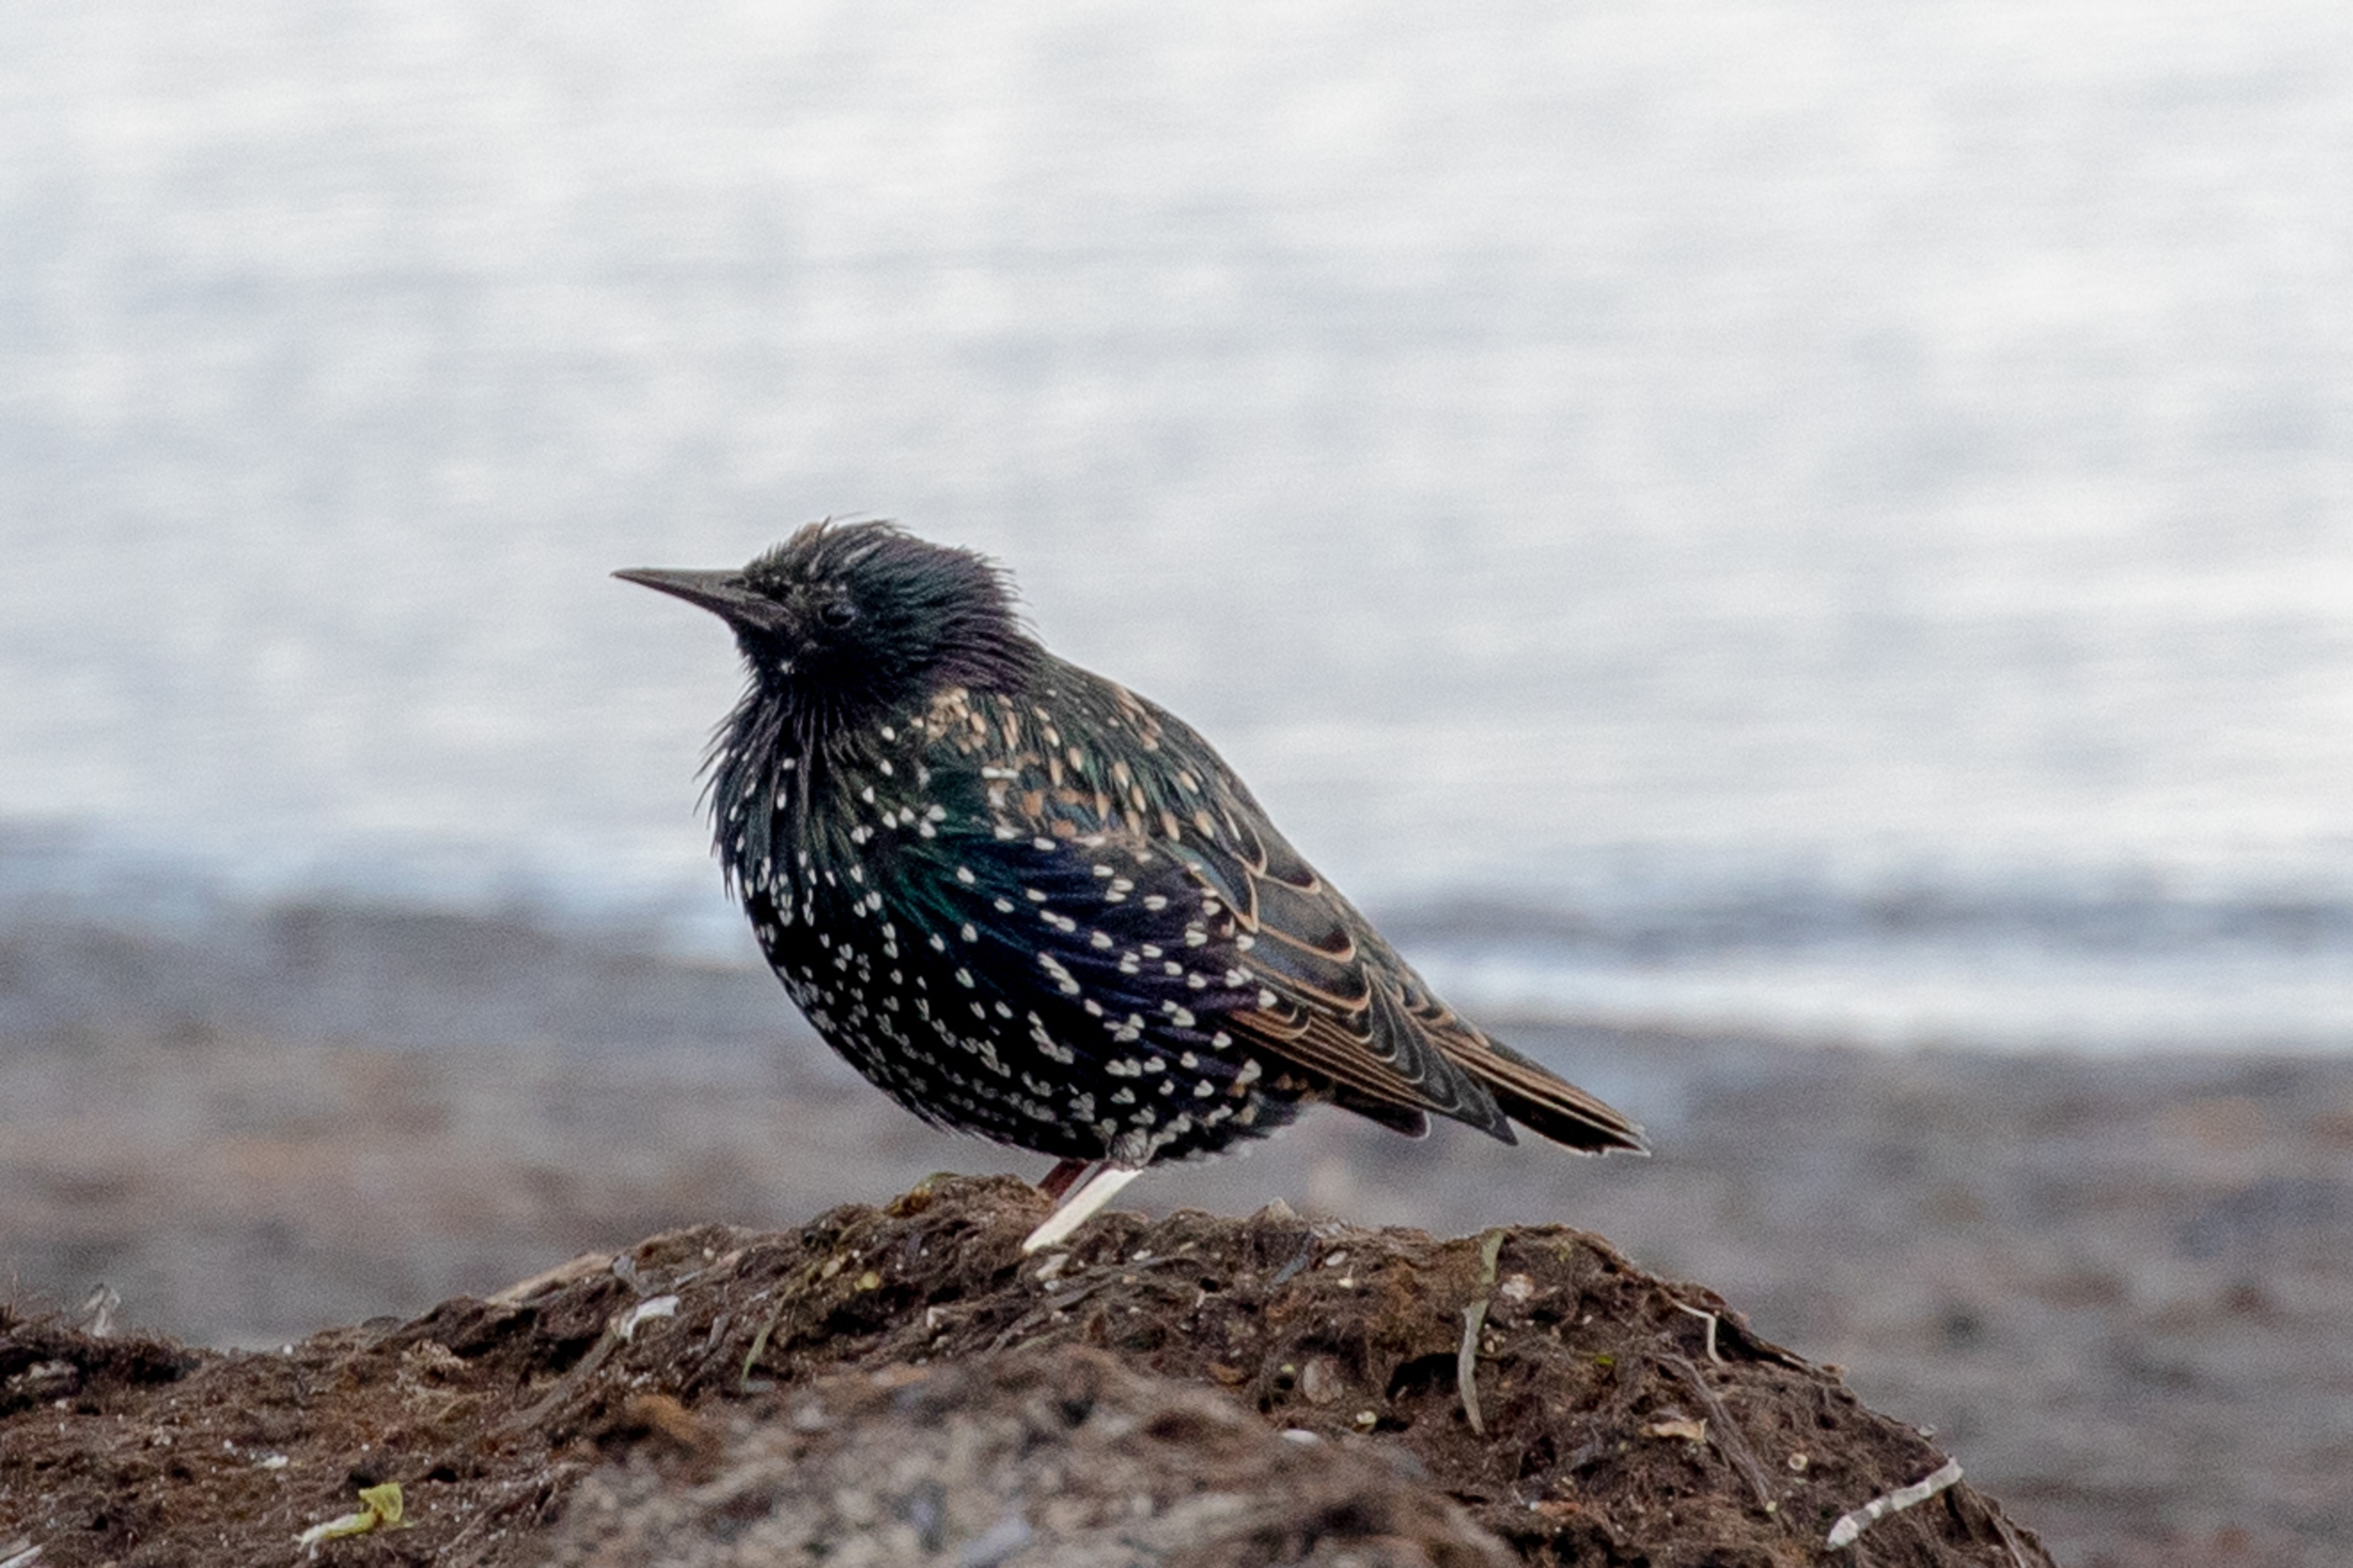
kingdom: Animalia
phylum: Chordata
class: Aves
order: Passeriformes
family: Sturnidae
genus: Sturnus
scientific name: Sturnus vulgaris
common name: Stær
